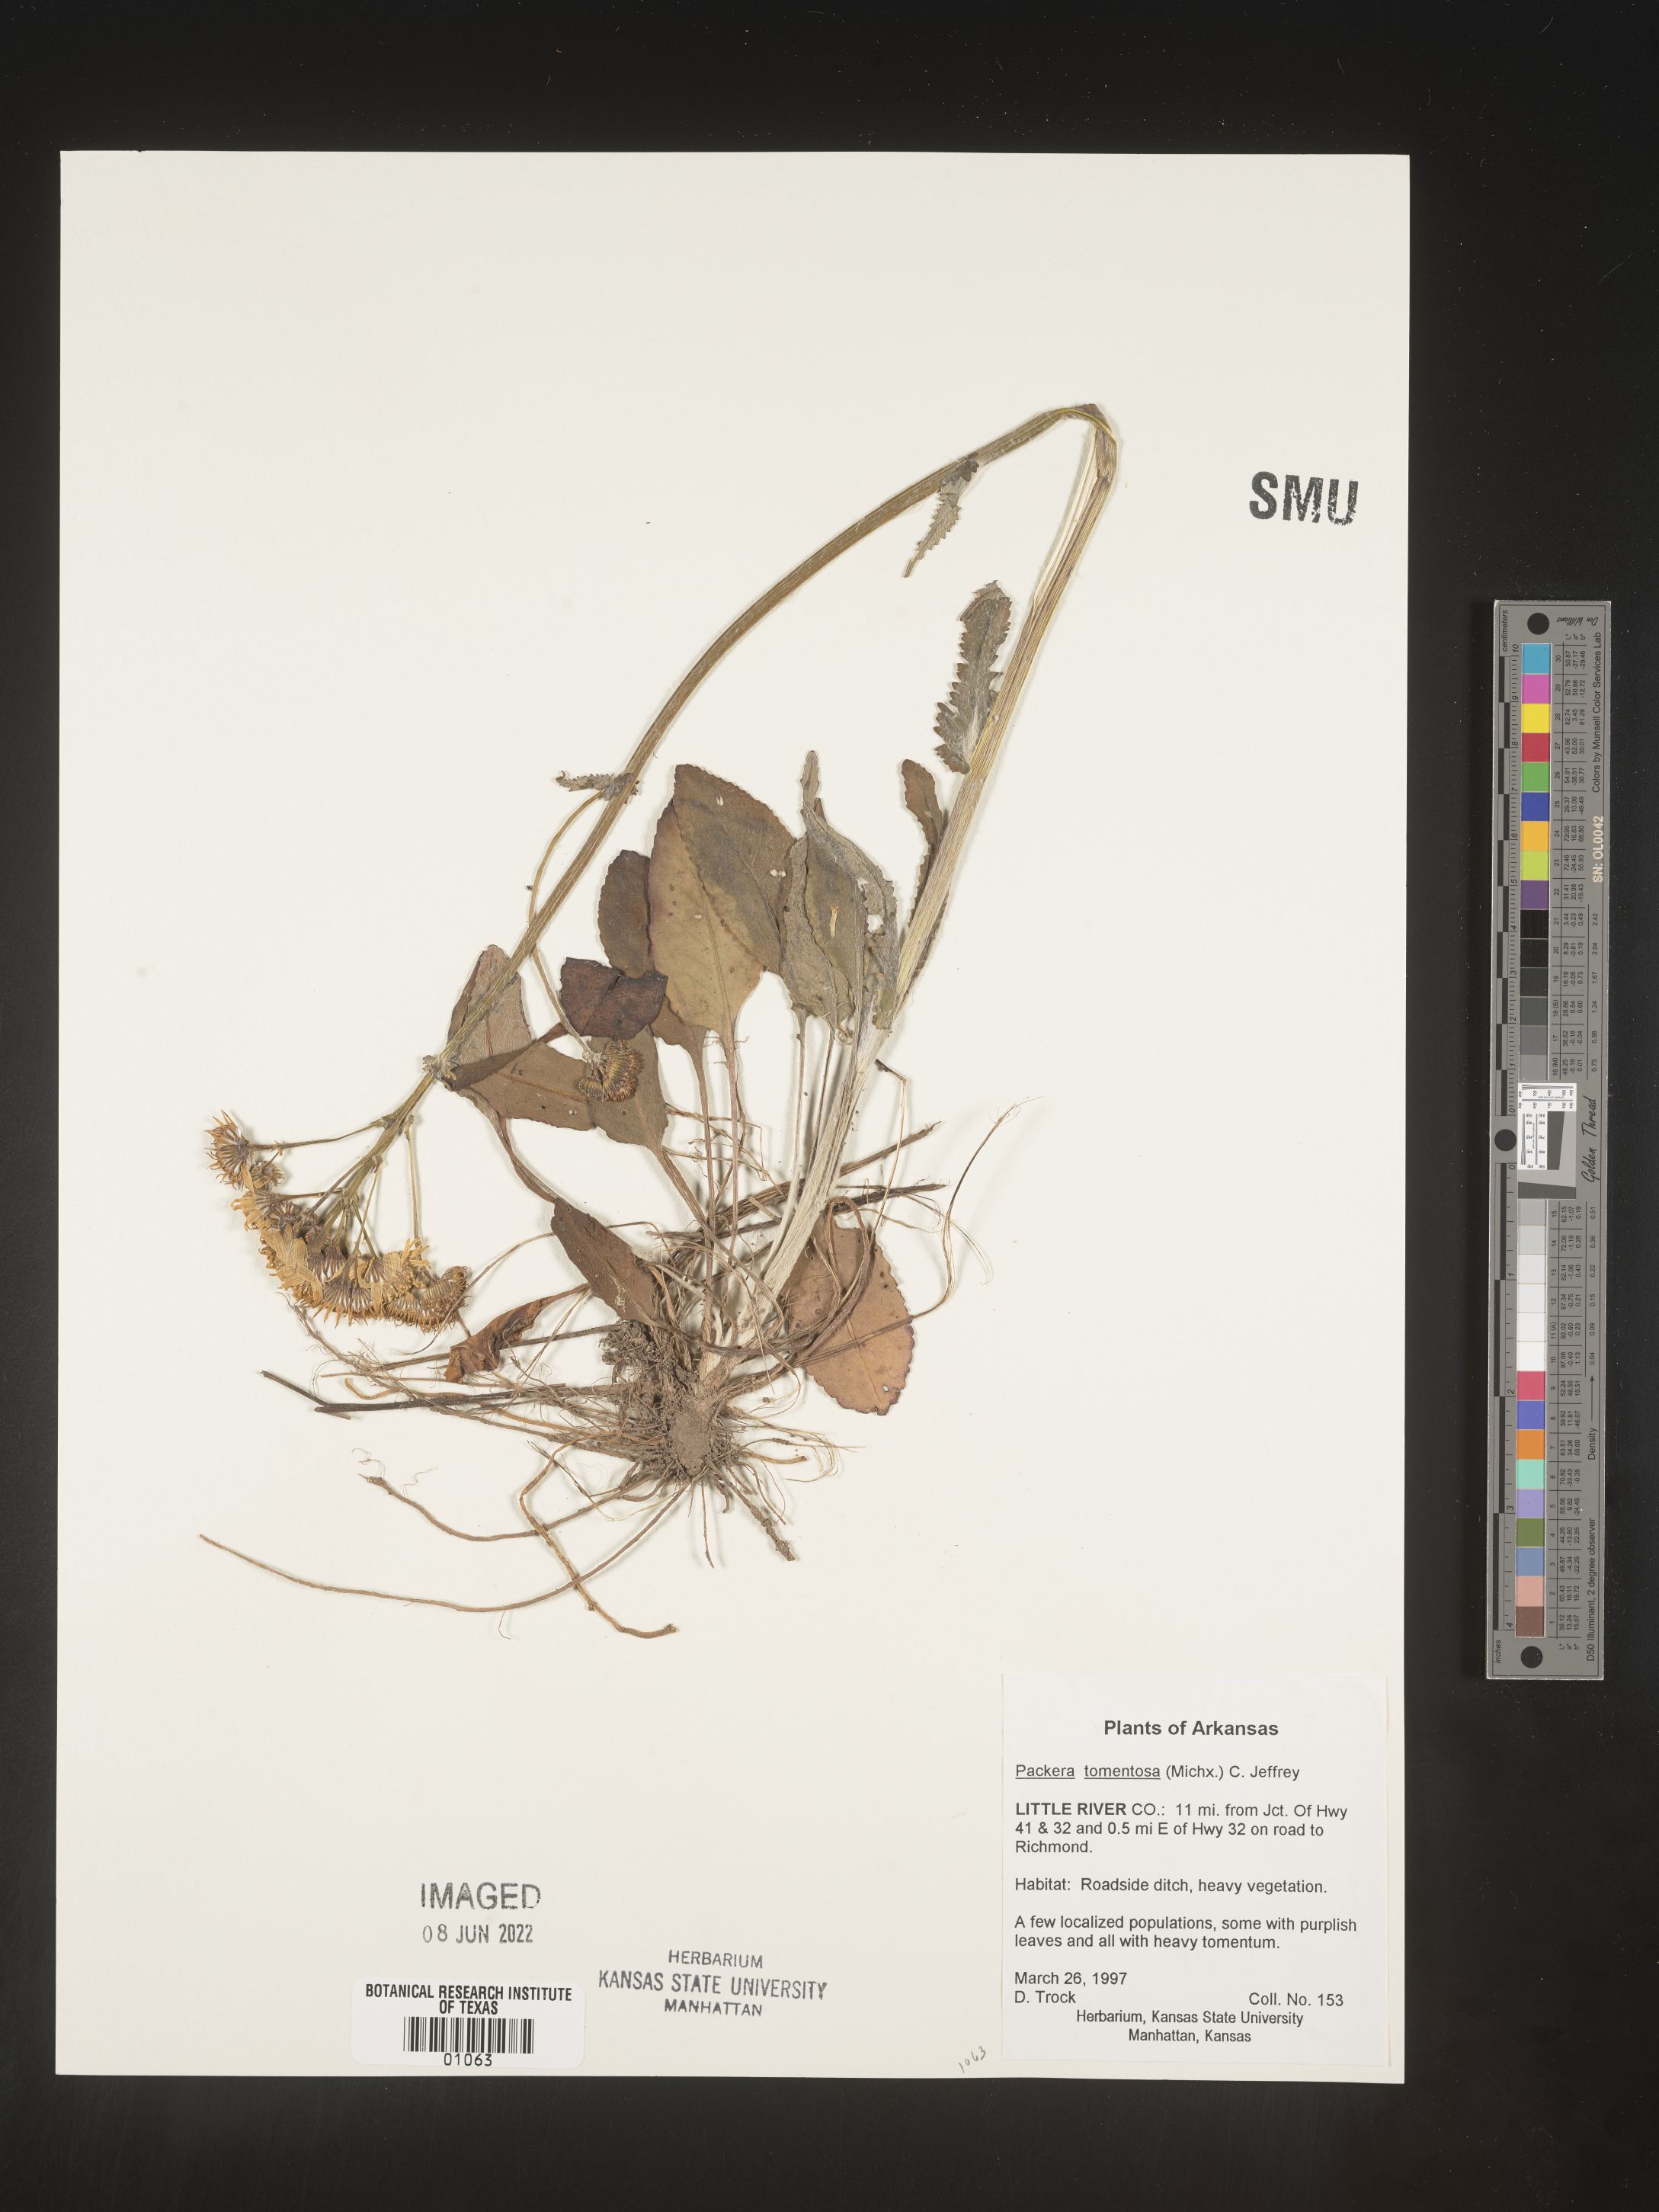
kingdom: Plantae
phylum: Tracheophyta
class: Magnoliopsida
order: Asterales
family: Asteraceae
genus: Packera
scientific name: Packera dubia
